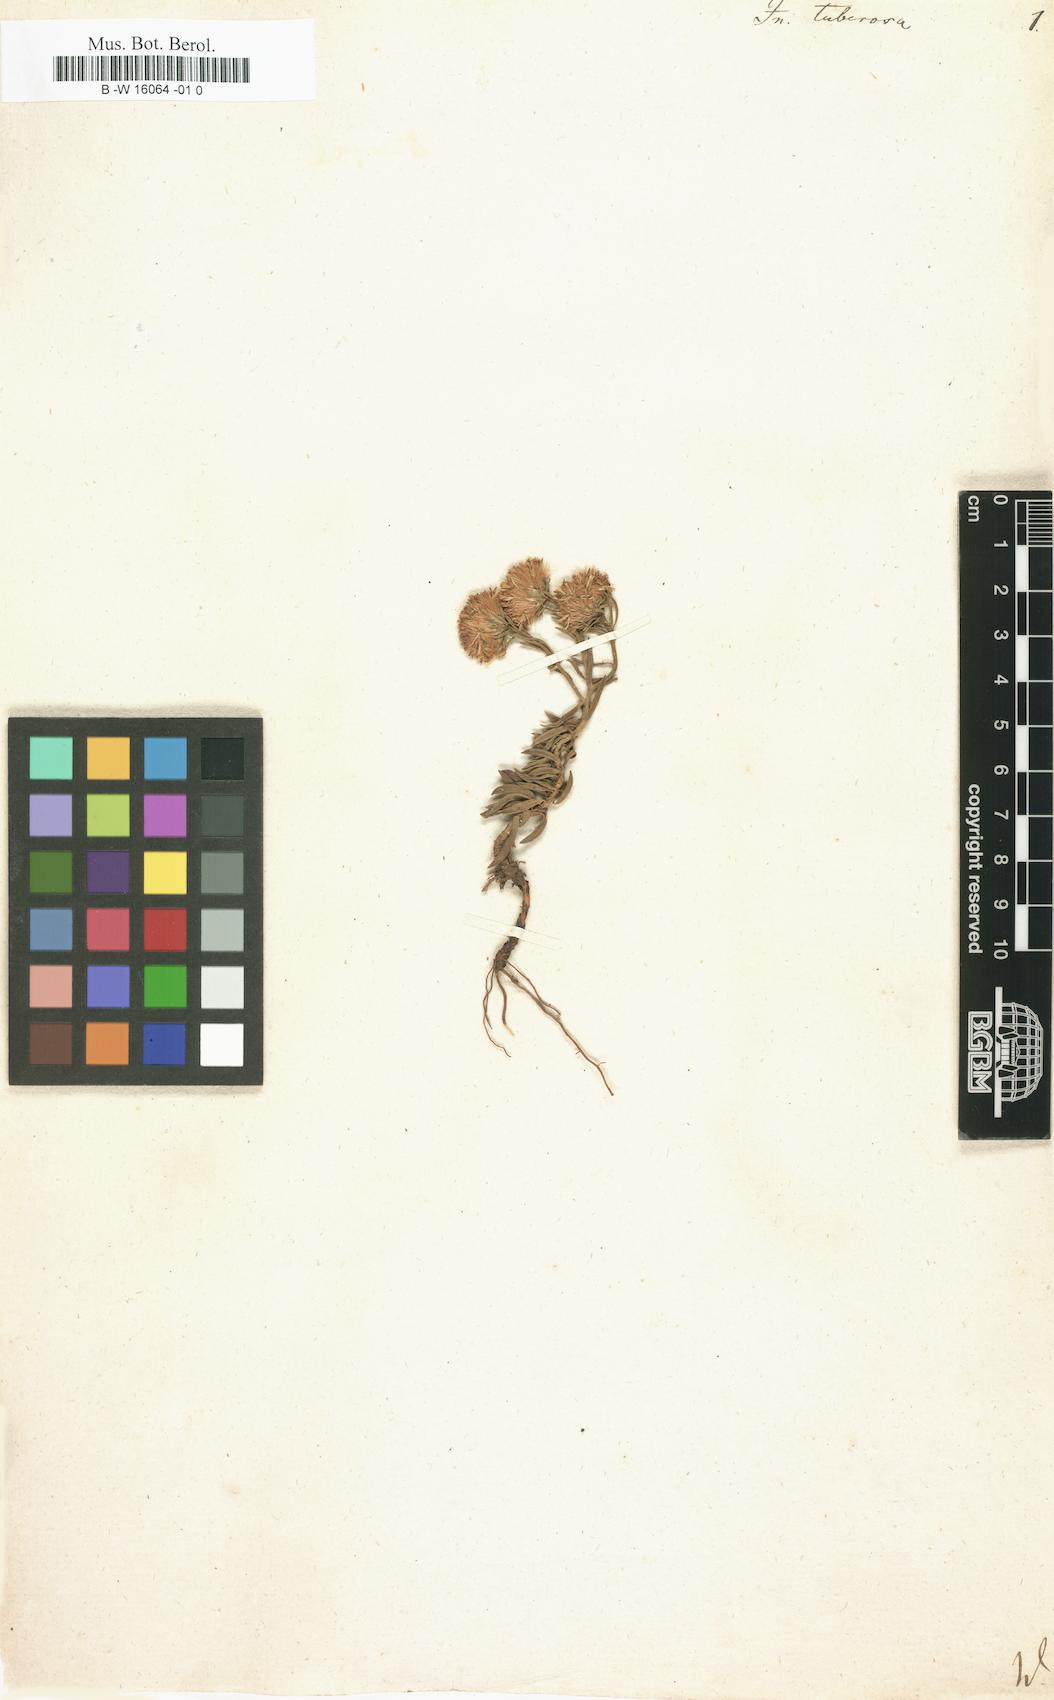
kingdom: Plantae
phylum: Tracheophyta
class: Magnoliopsida
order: Asterales
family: Asteraceae
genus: Jasonia
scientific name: Jasonia tuberosa
